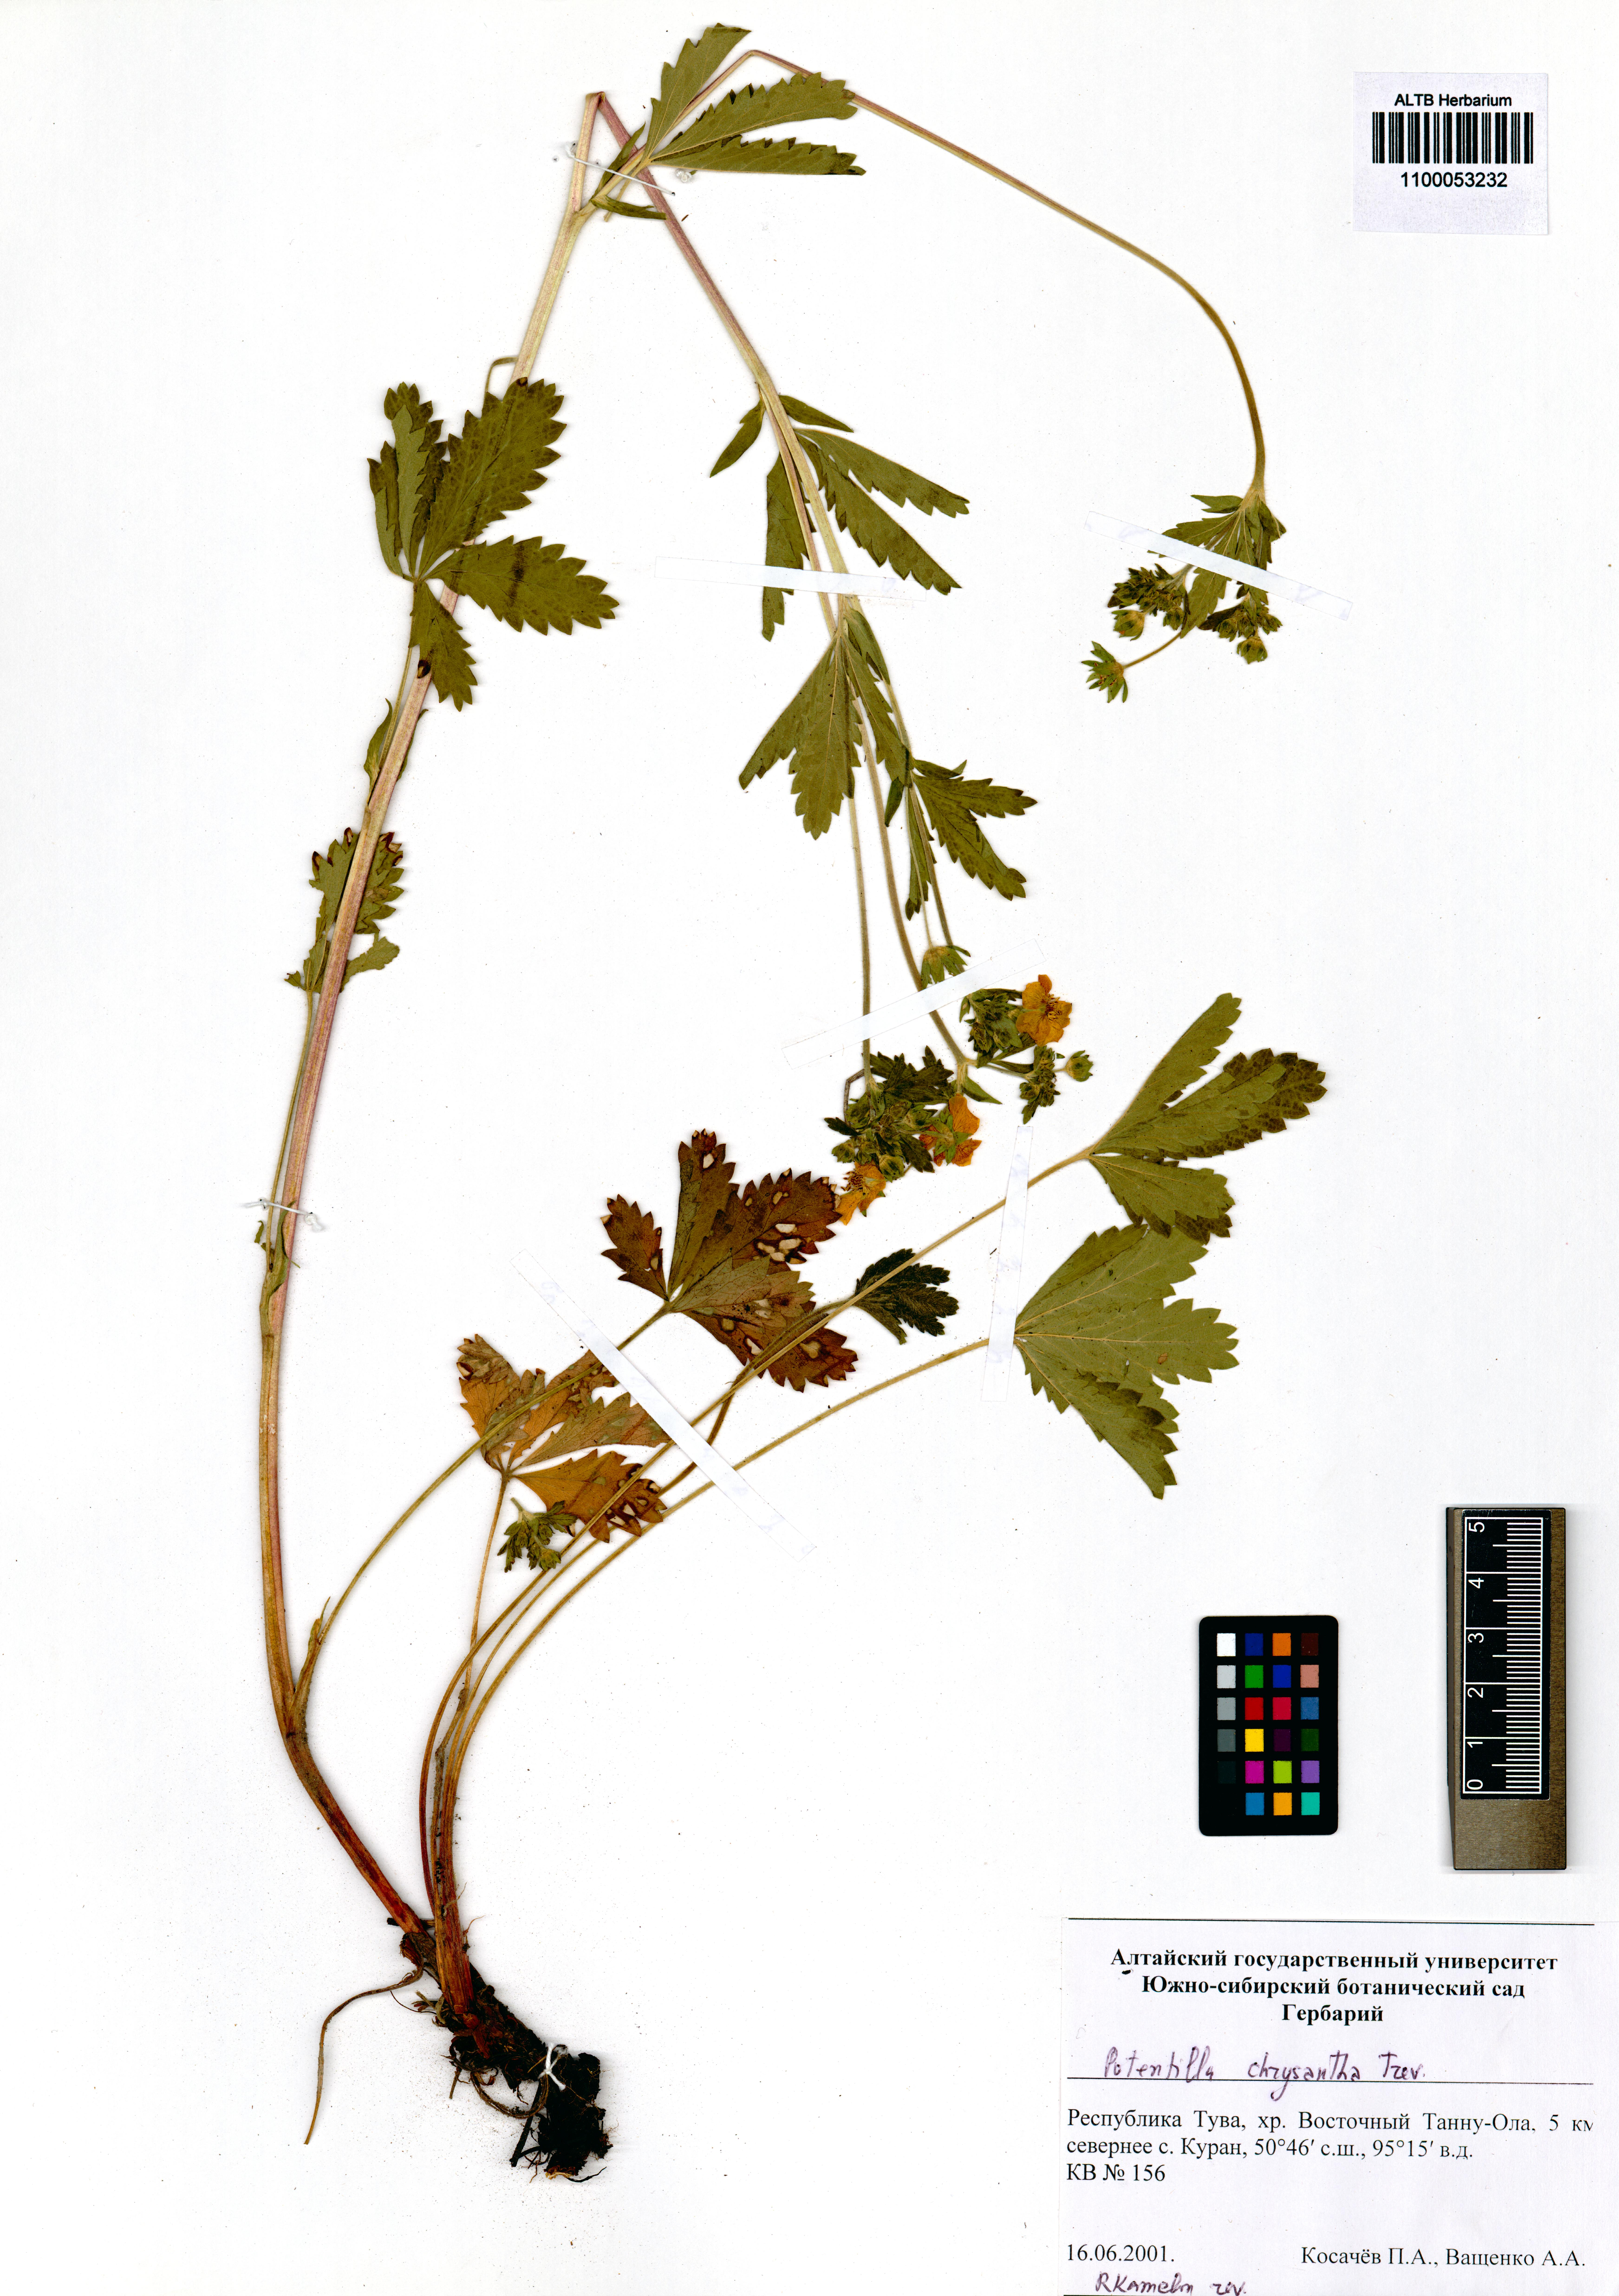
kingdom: Plantae
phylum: Tracheophyta
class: Magnoliopsida
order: Rosales
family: Rosaceae
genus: Potentilla
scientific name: Potentilla chrysantha
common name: Thuringian cinquefoil
